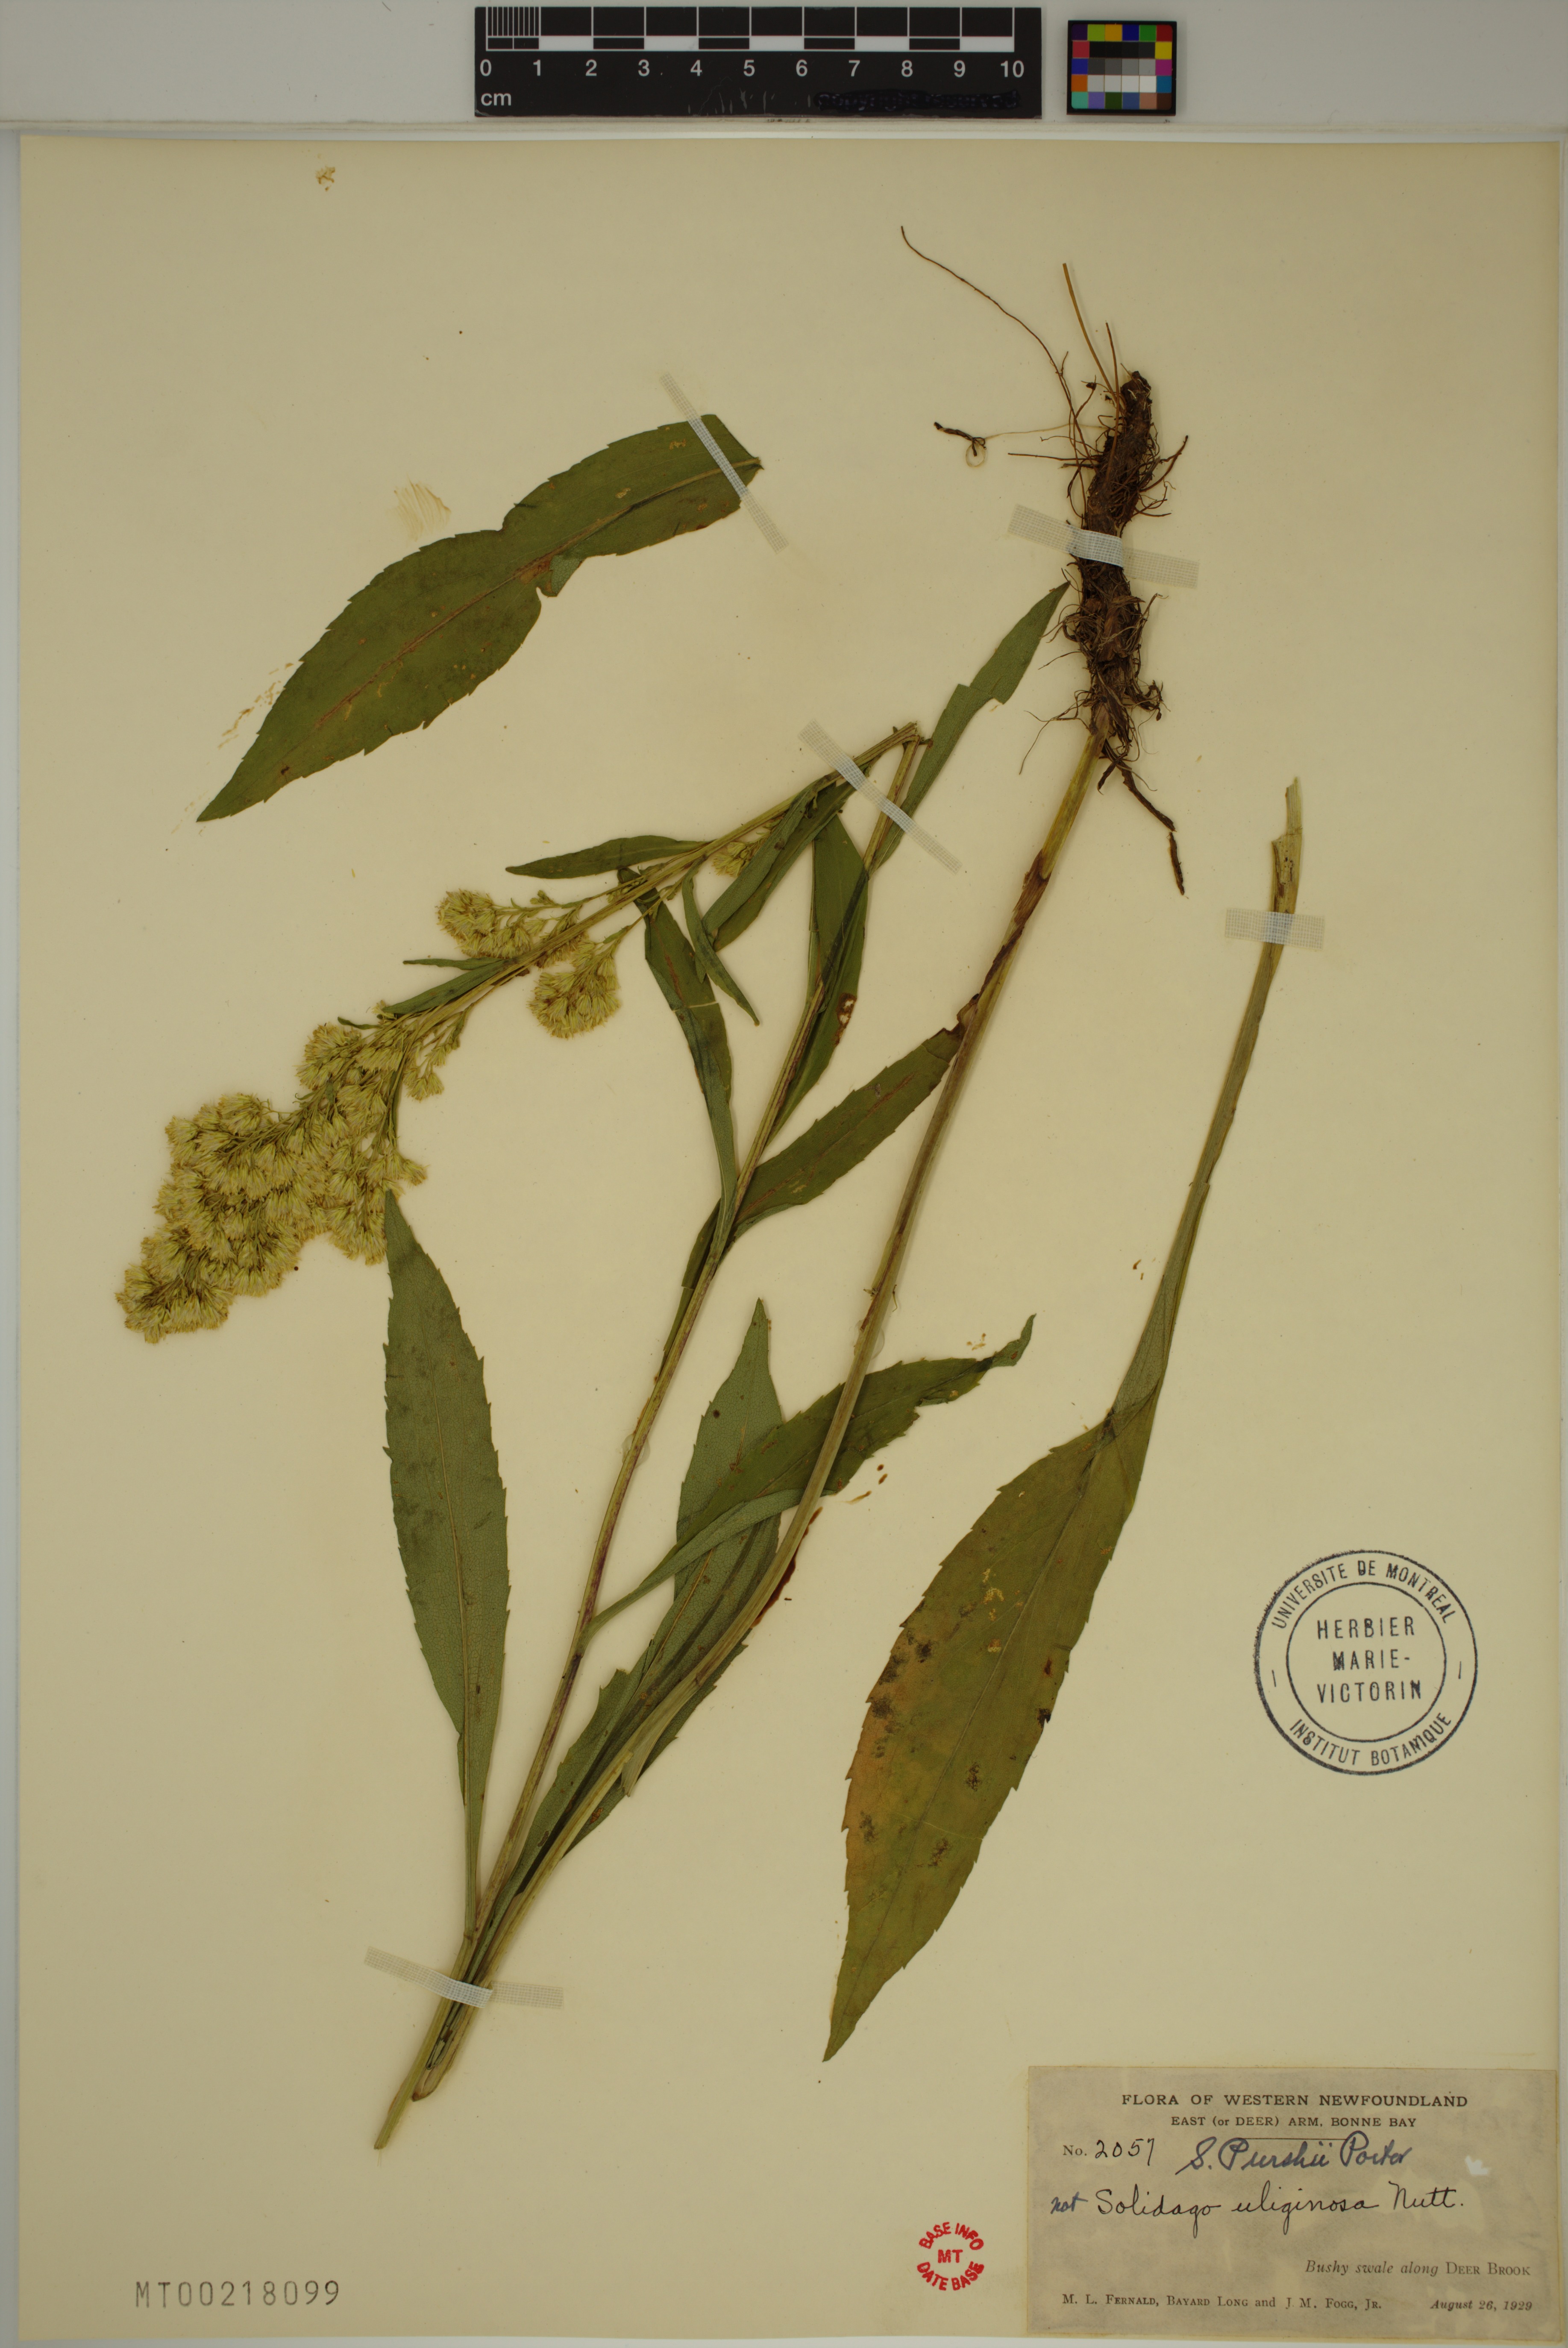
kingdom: Plantae
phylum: Tracheophyta
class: Magnoliopsida
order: Asterales
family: Asteraceae
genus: Solidago
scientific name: Solidago uliginosa
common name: Bog goldenrod
